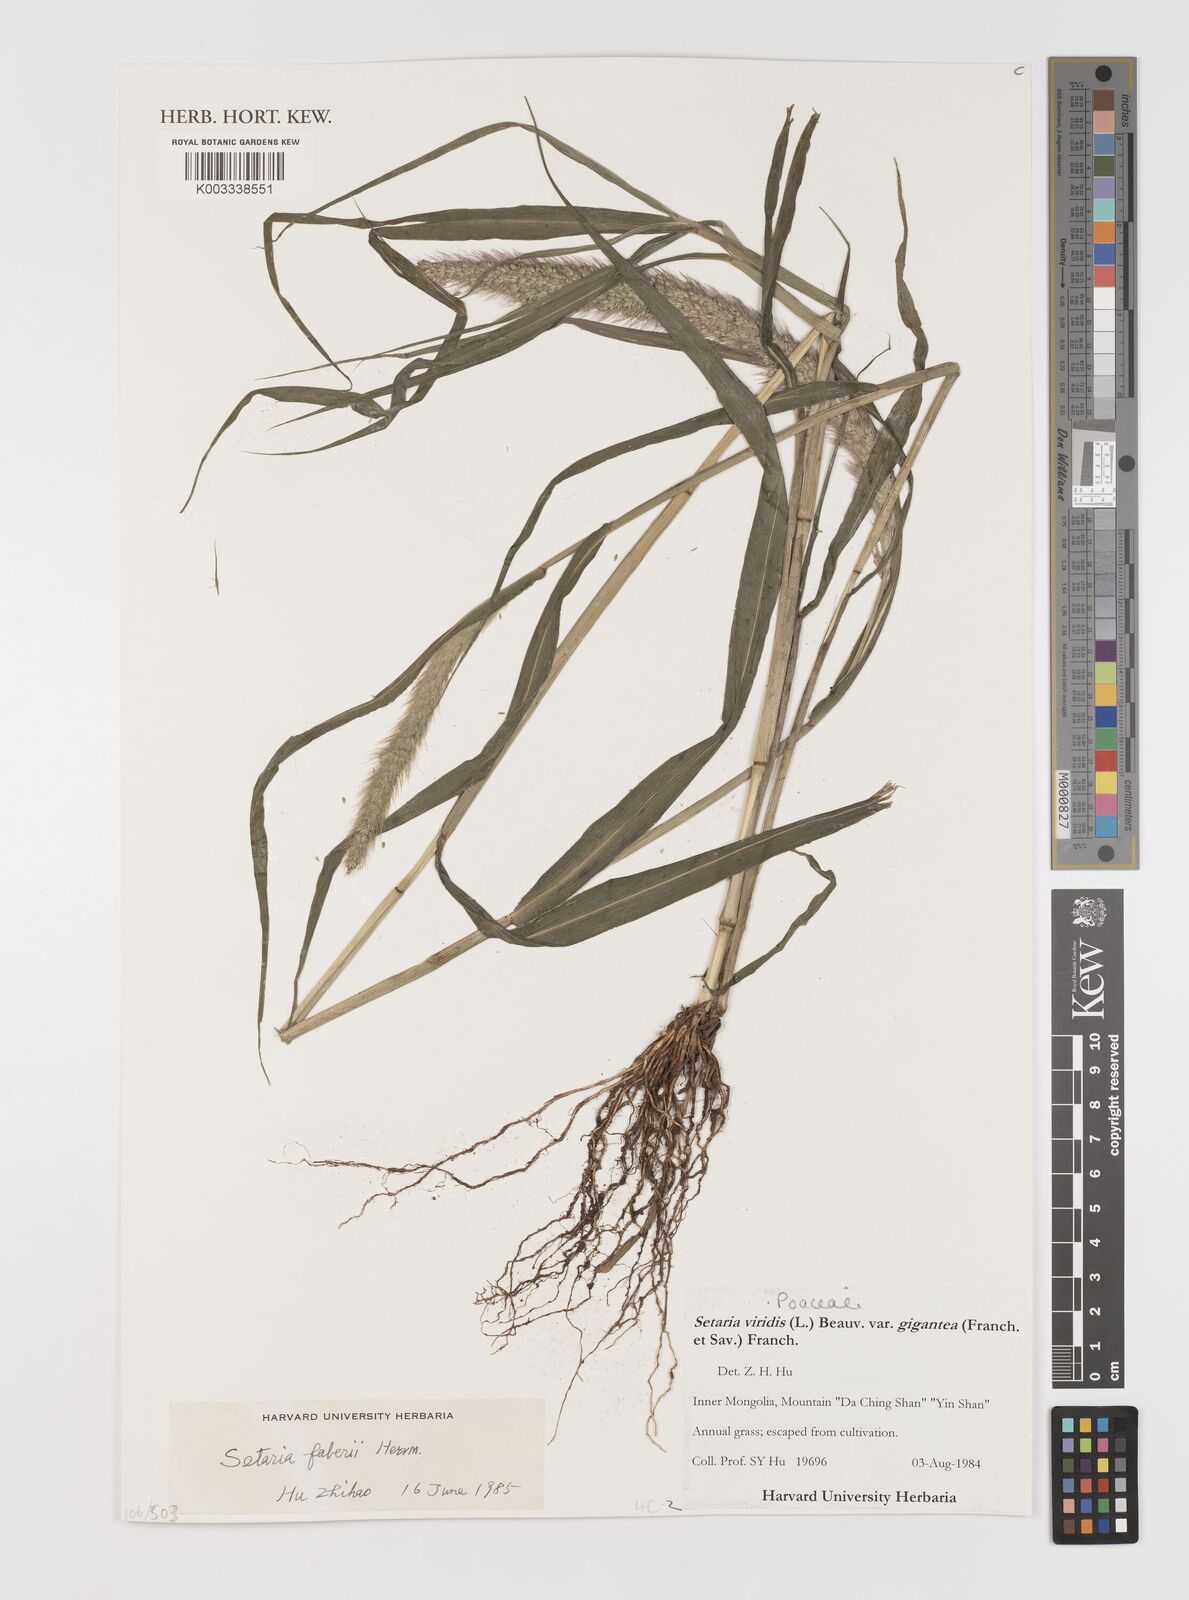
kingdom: Plantae
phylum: Tracheophyta
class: Liliopsida
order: Poales
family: Poaceae
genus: Setaria
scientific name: Setaria faberi
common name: Nodding bristle-grass
